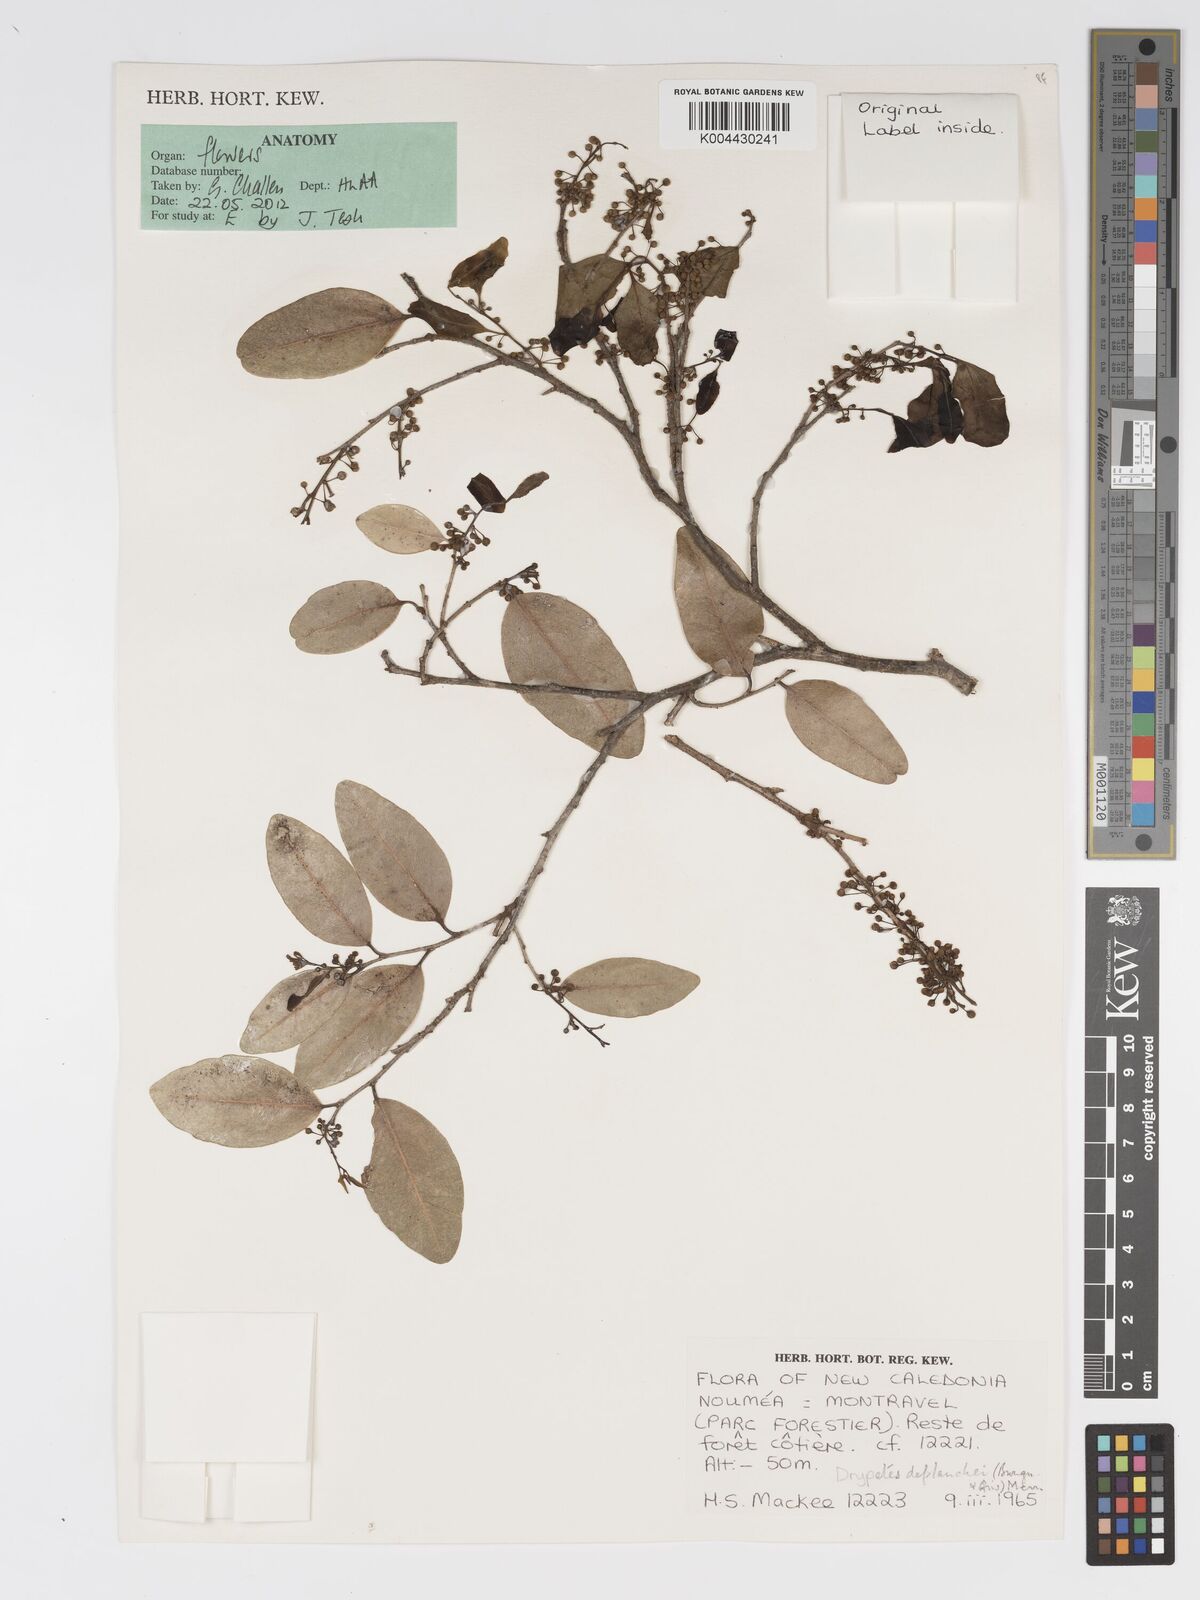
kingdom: Plantae
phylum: Tracheophyta
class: Magnoliopsida
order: Malpighiales
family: Putranjivaceae
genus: Drypetes
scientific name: Drypetes deplanchei
